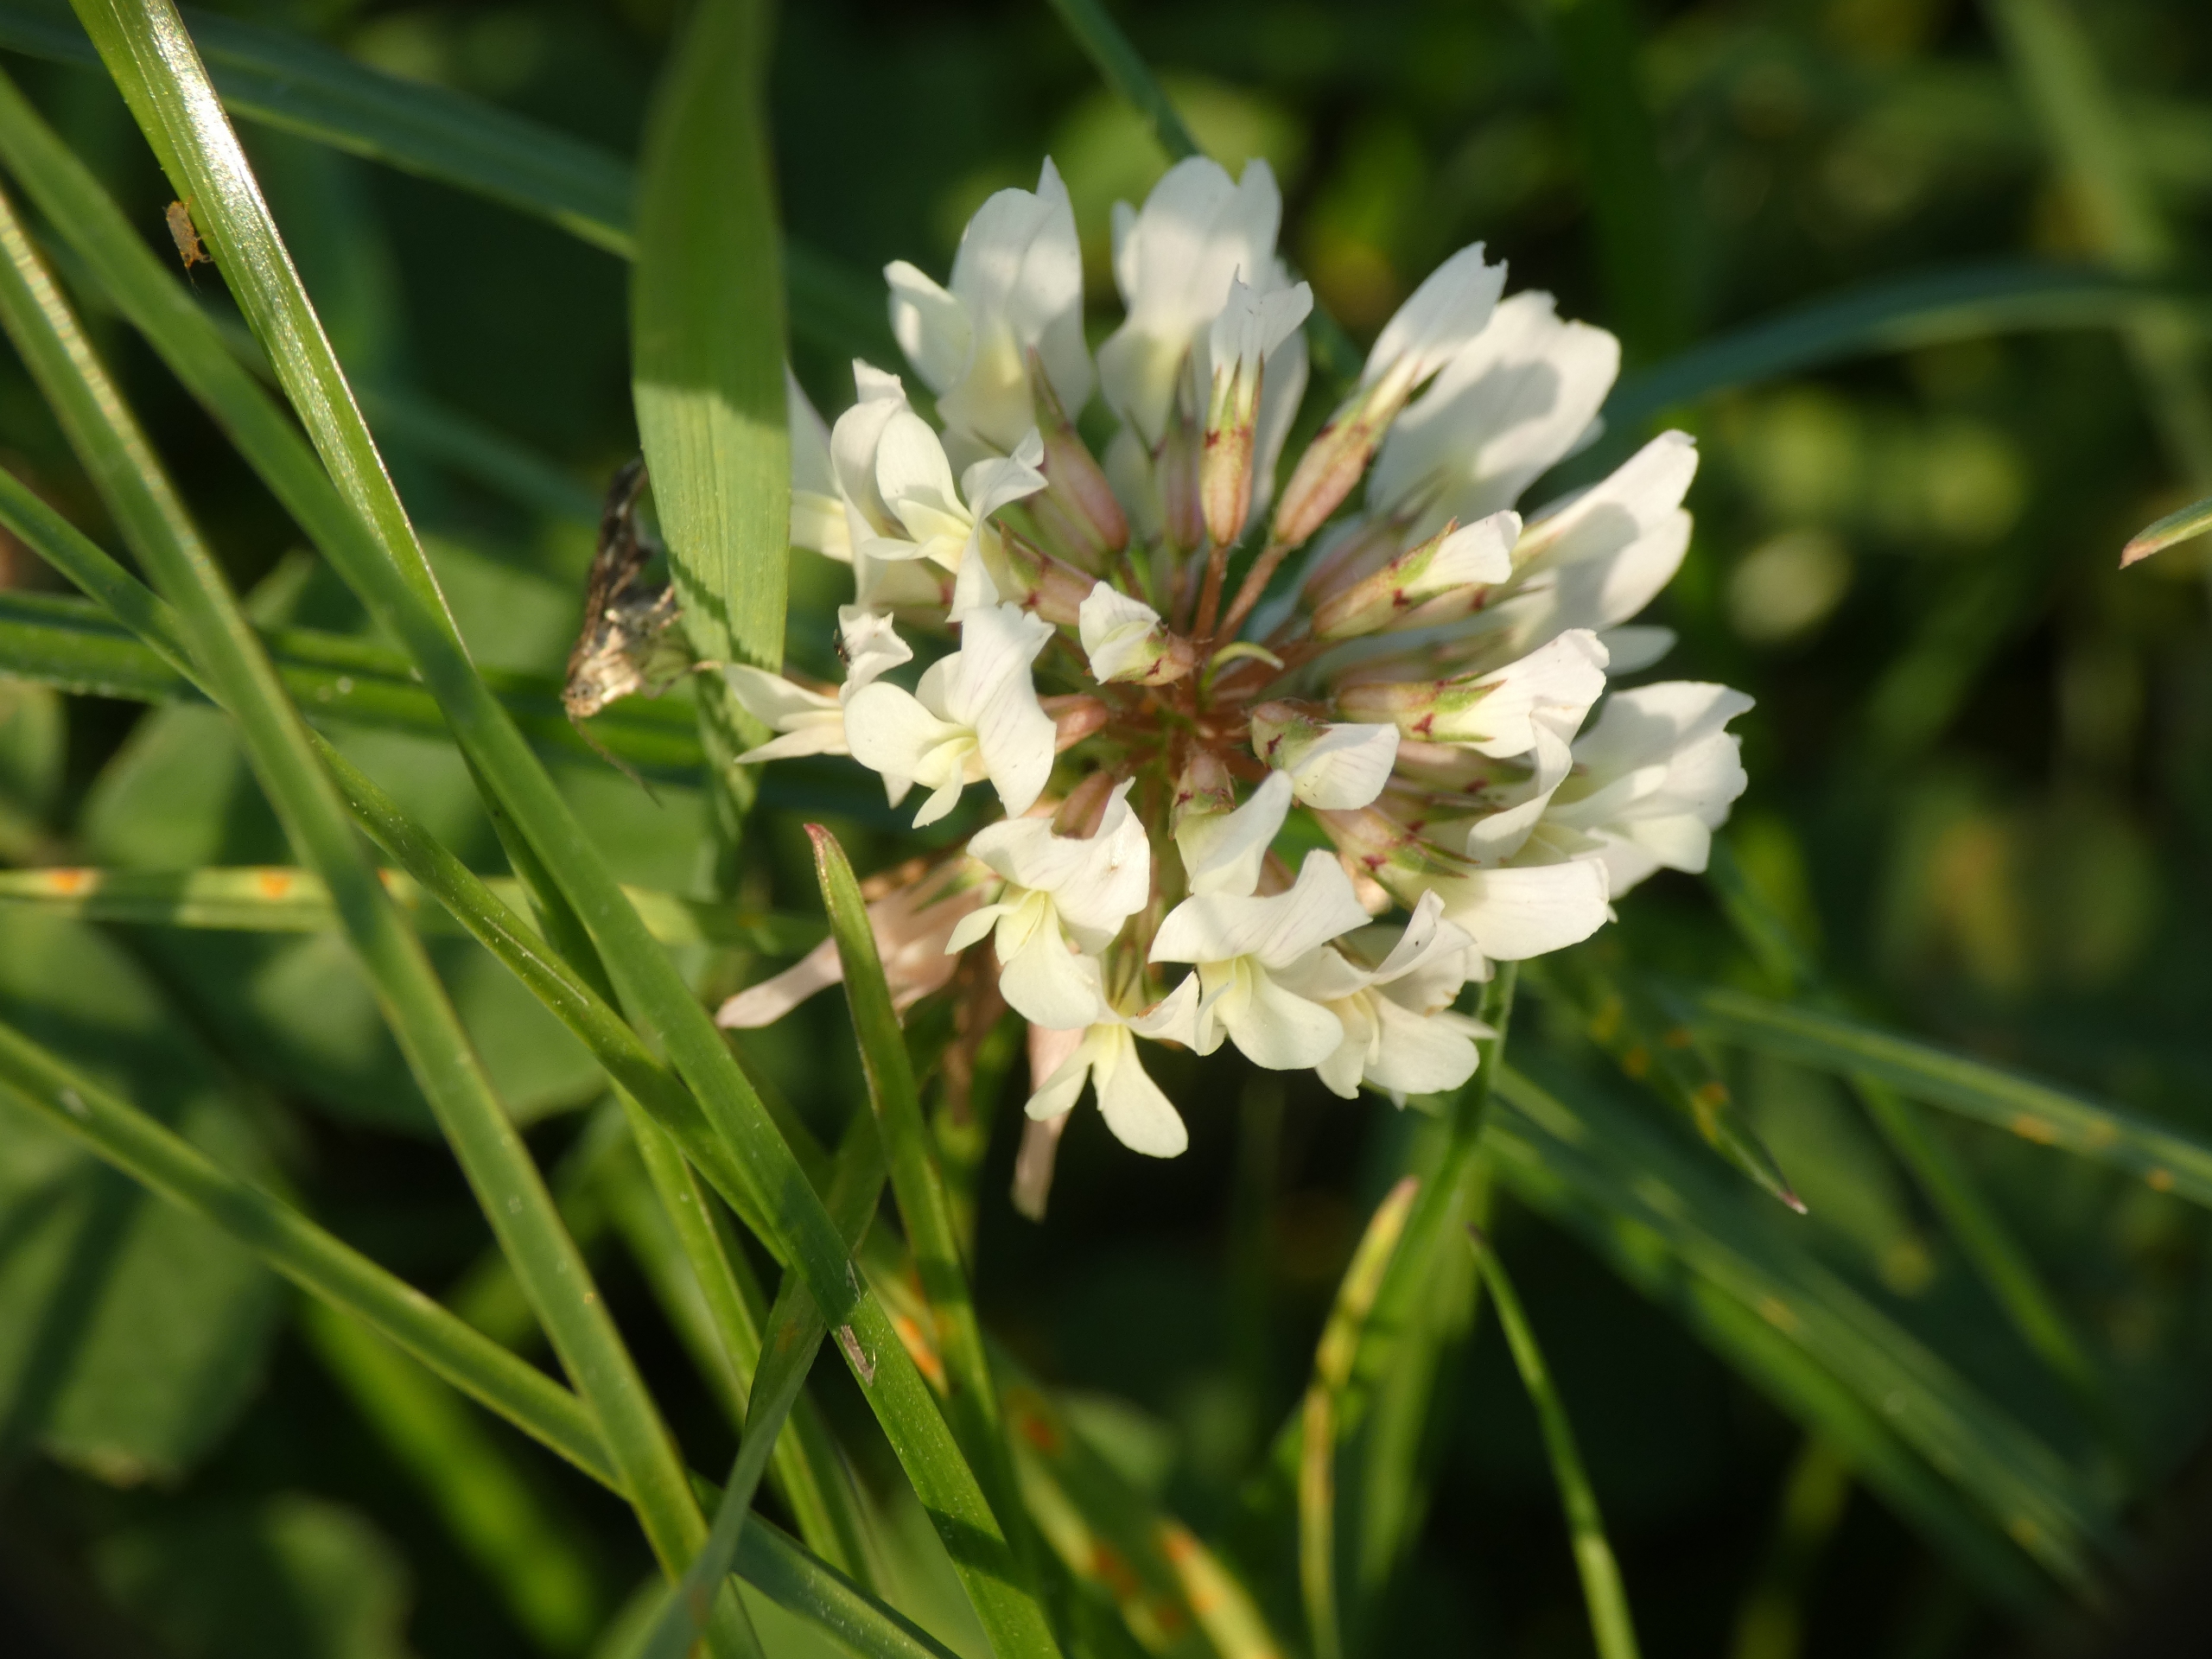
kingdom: Plantae
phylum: Tracheophyta
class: Magnoliopsida
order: Fabales
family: Fabaceae
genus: Trifolium
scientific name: Trifolium repens
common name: Hvid-kløver
